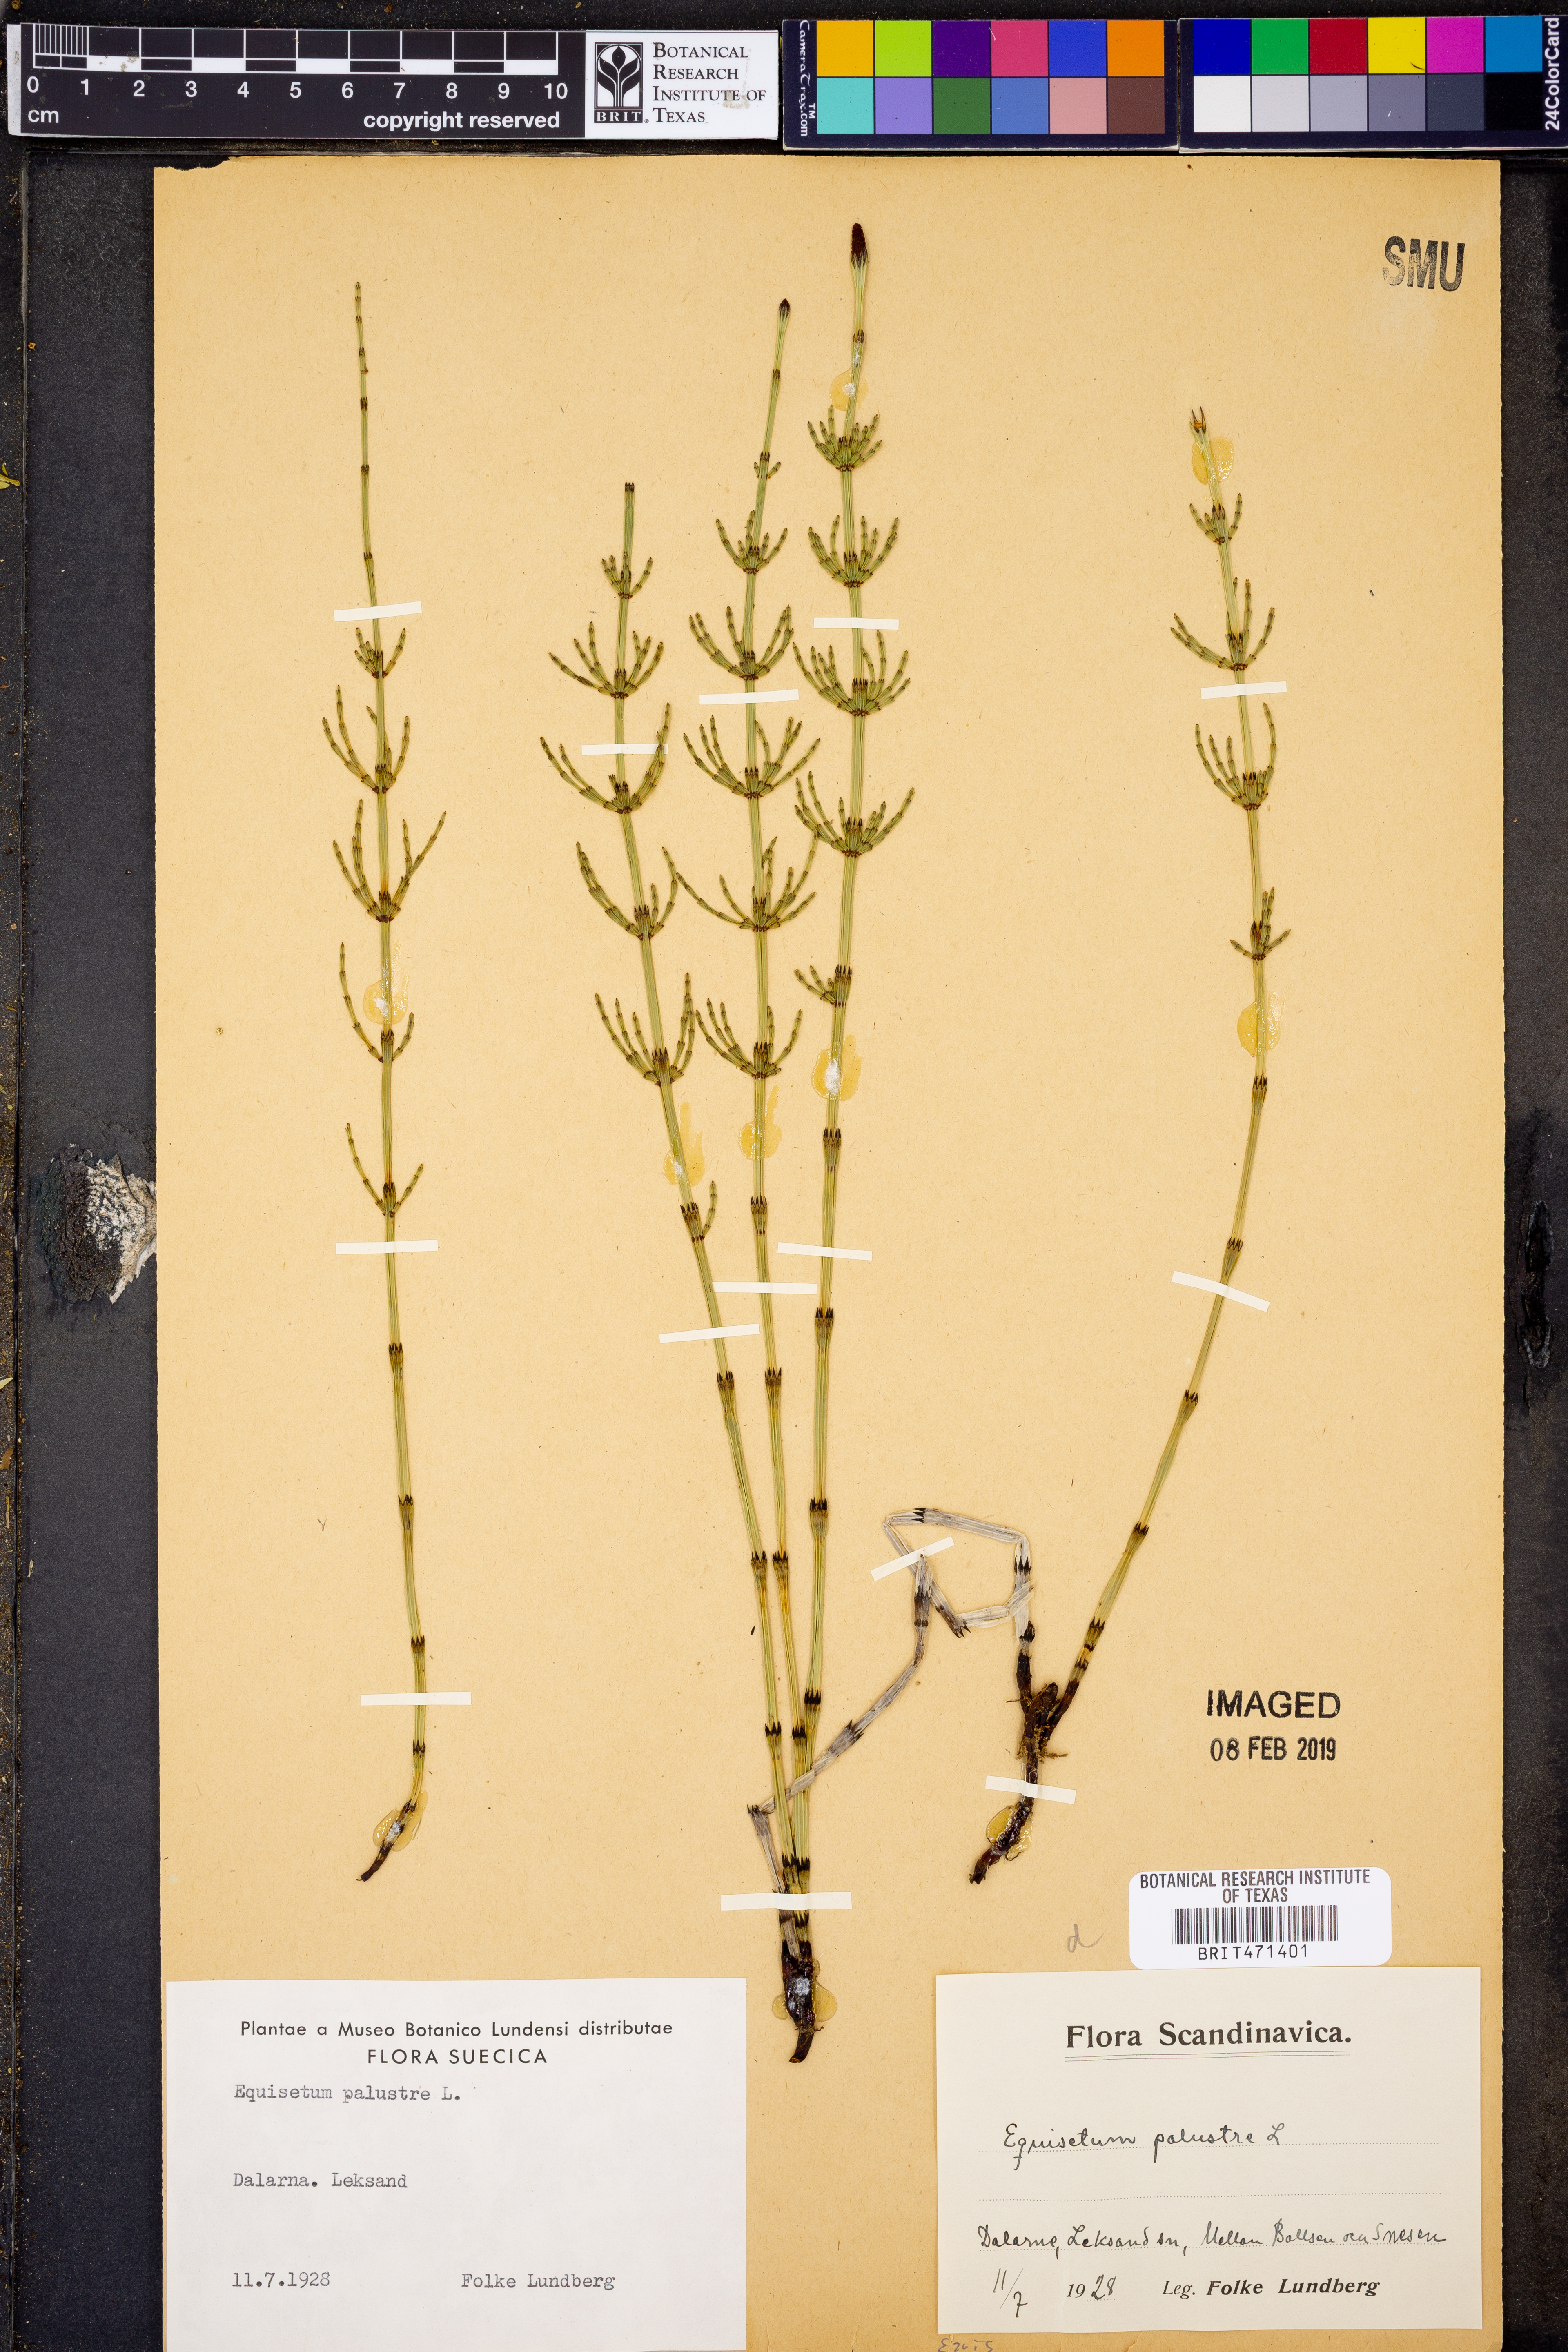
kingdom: Plantae
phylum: Tracheophyta
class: Polypodiopsida
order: Equisetales
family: Equisetaceae
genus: Equisetum
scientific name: Equisetum palustre
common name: Marsh horsetail
